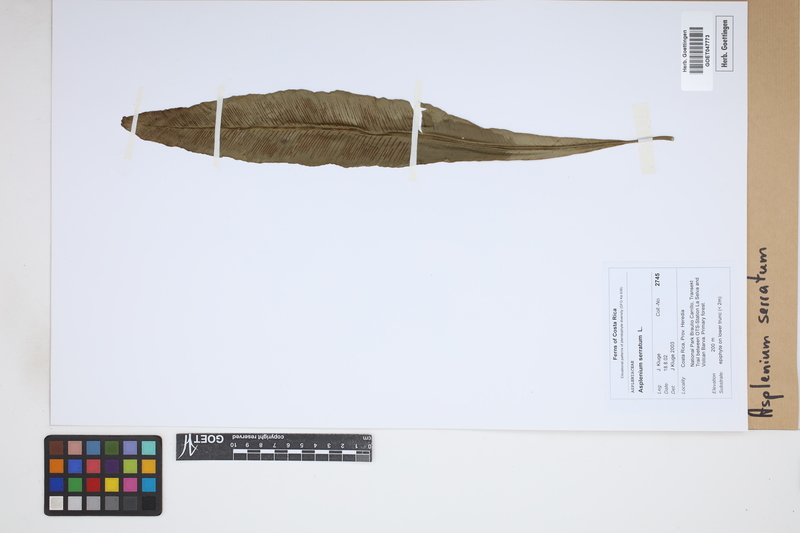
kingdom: Plantae
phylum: Tracheophyta
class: Polypodiopsida
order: Polypodiales
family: Aspleniaceae
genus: Asplenium
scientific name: Asplenium serratum
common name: Wild birdnest fern
